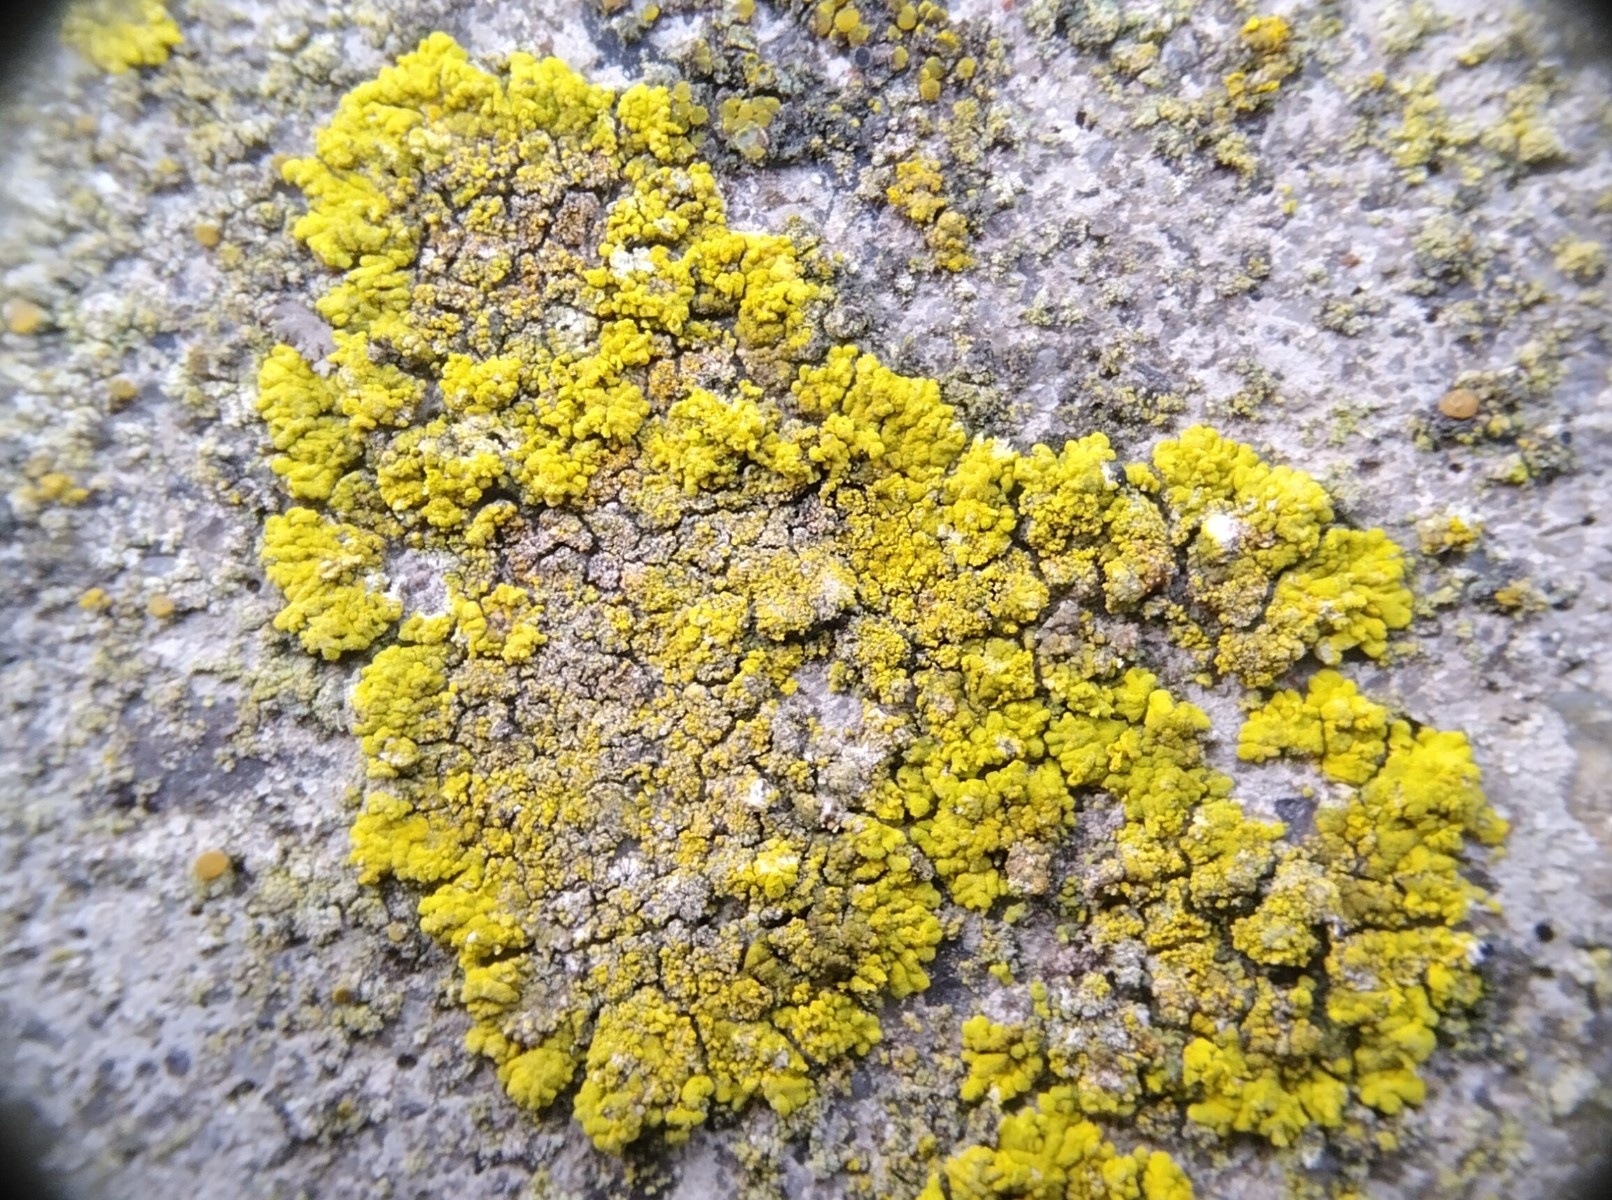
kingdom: Fungi
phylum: Ascomycota
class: Candelariomycetes
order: Candelariales
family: Candelariaceae
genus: Candelariella
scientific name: Candelariella medians
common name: roset-æggeblommelav
